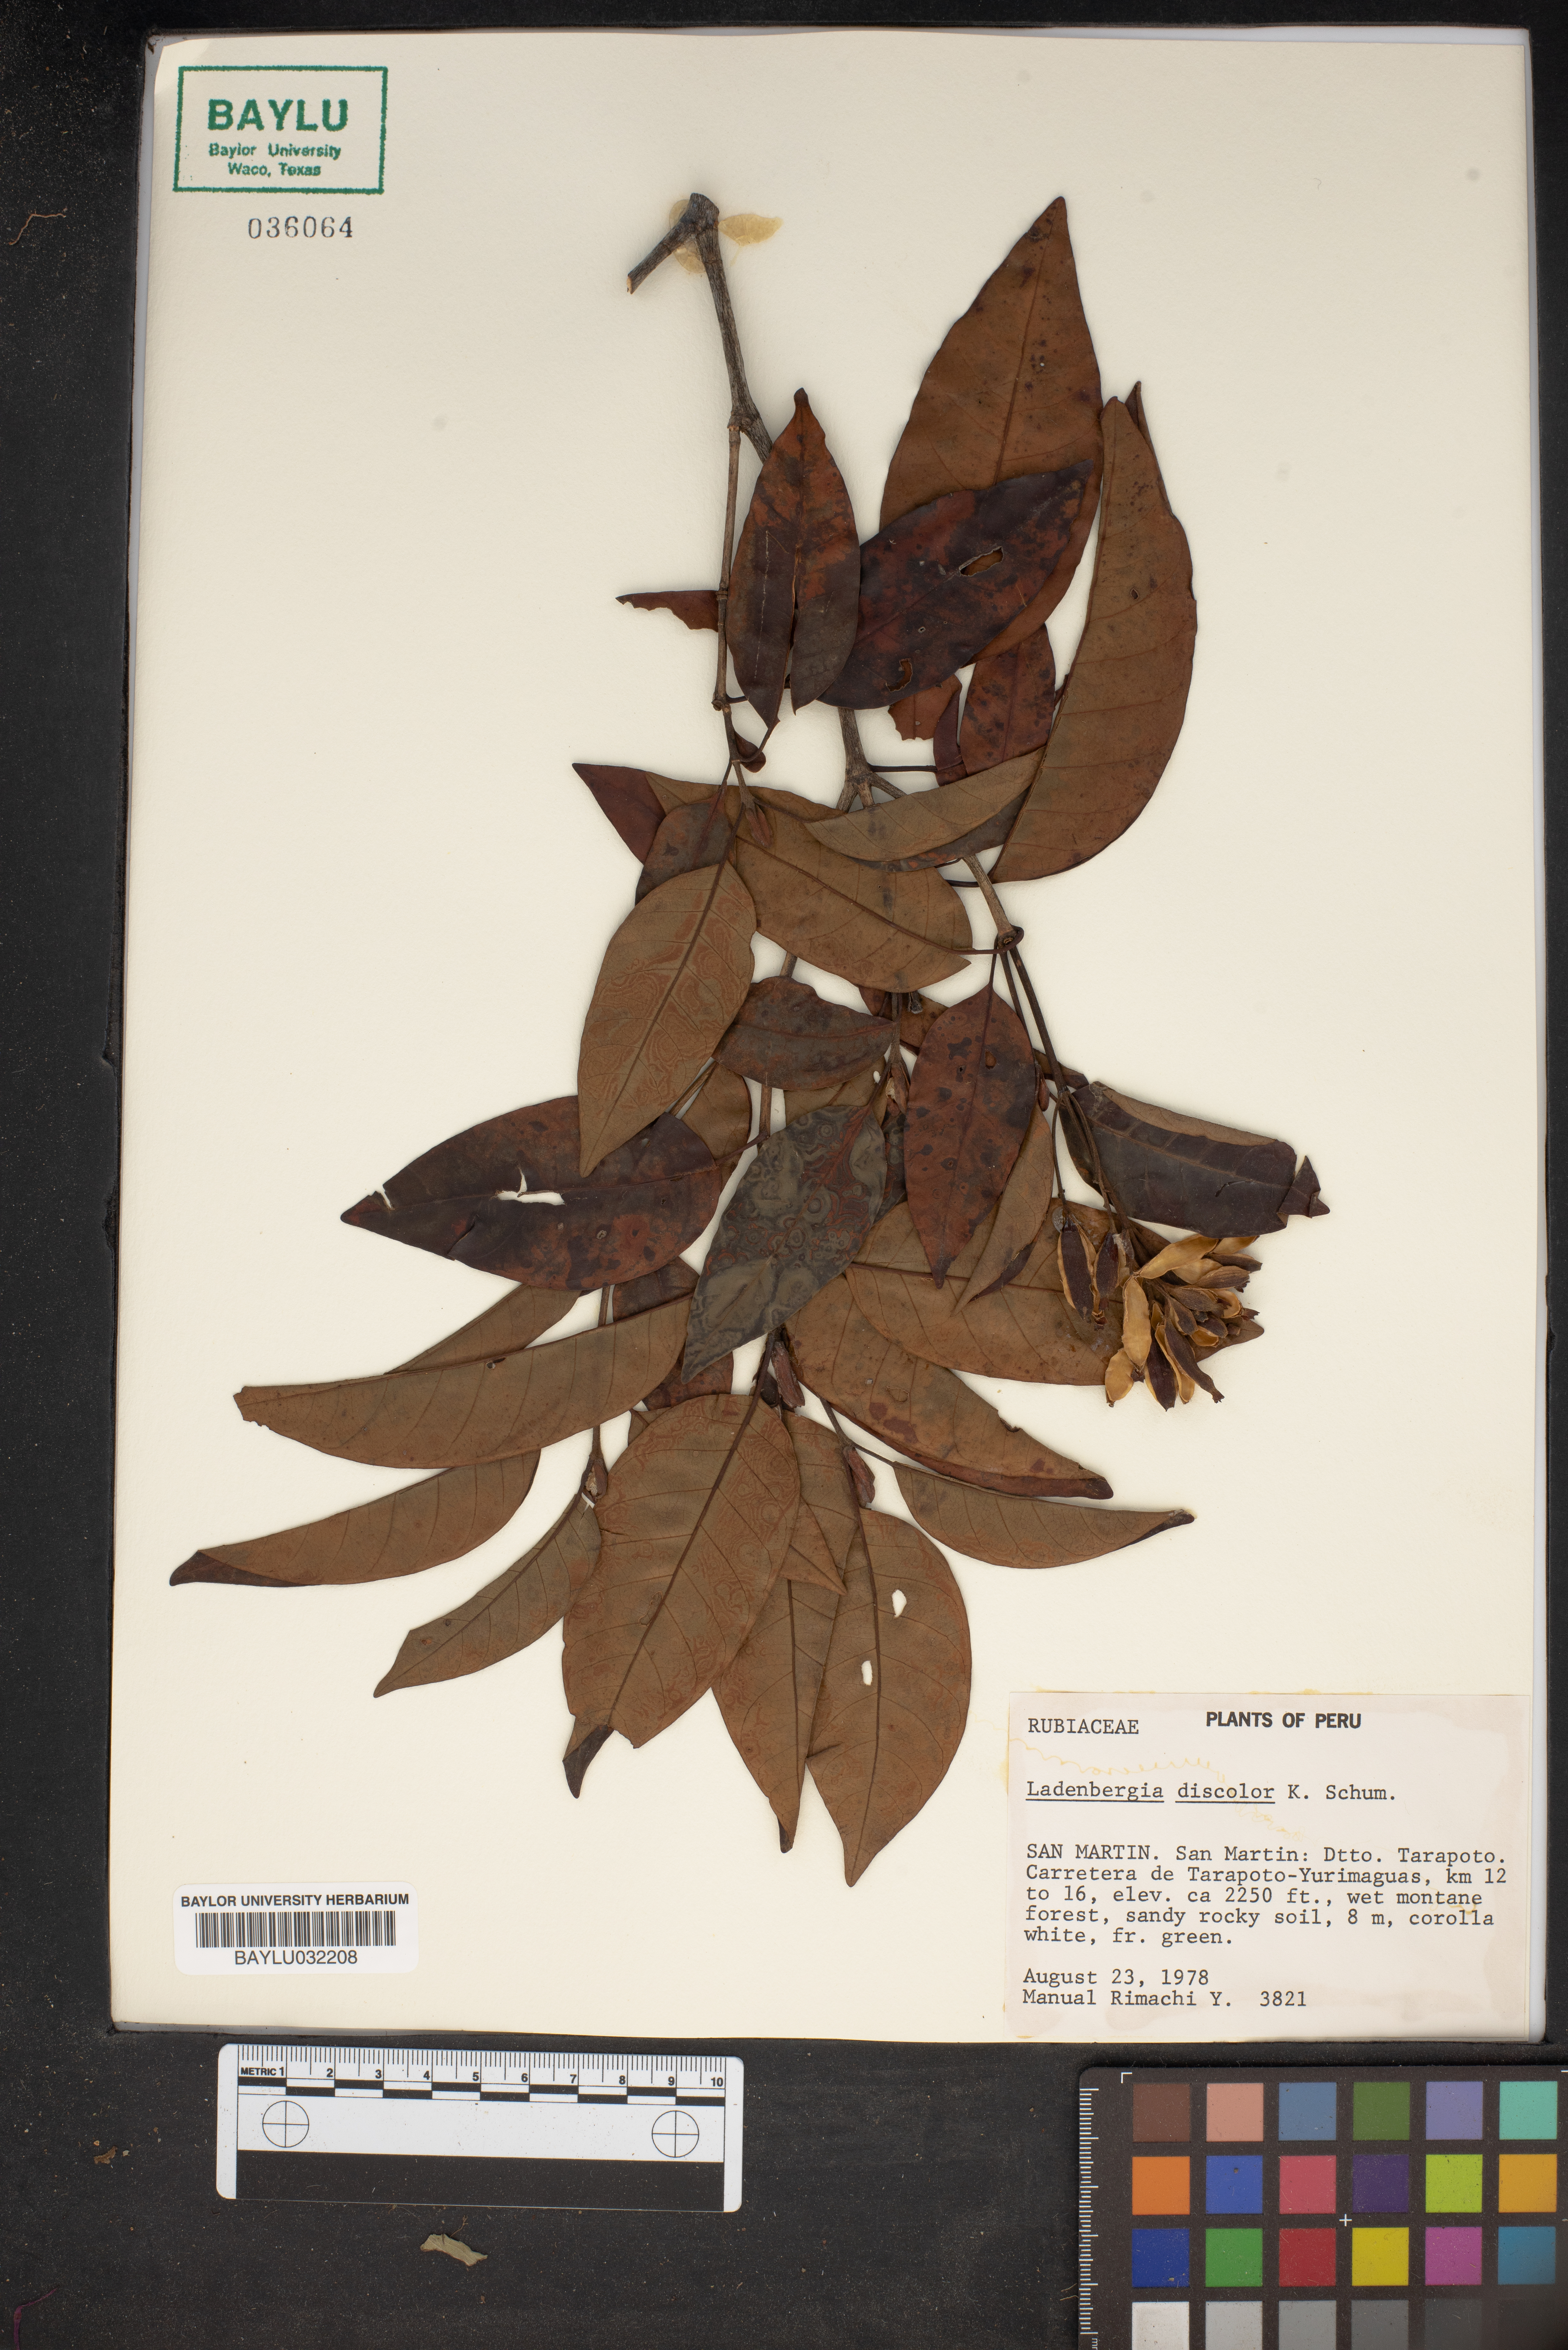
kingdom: Plantae
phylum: Tracheophyta
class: Magnoliopsida
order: Gentianales
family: Rubiaceae
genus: Ladenbergia
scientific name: Ladenbergia discolor
